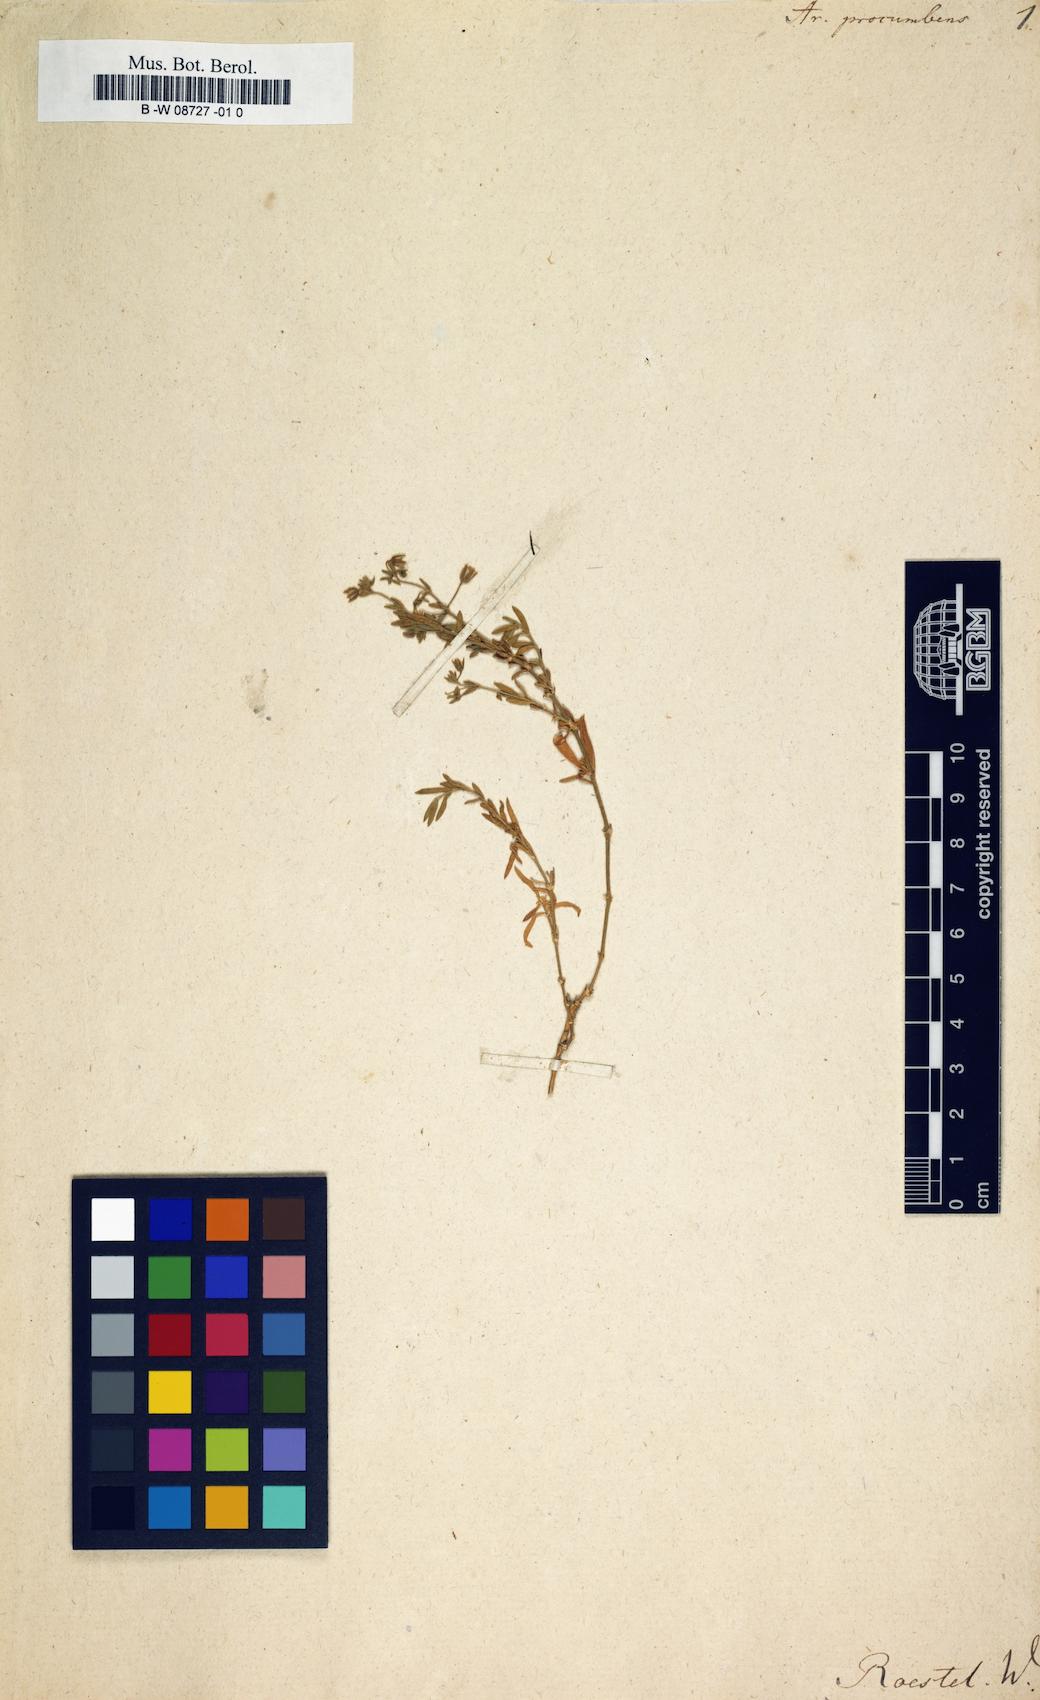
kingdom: Plantae
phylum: Tracheophyta
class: Magnoliopsida
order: Caryophyllales
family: Caryophyllaceae
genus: Rhodalsine
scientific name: Rhodalsine geniculata
